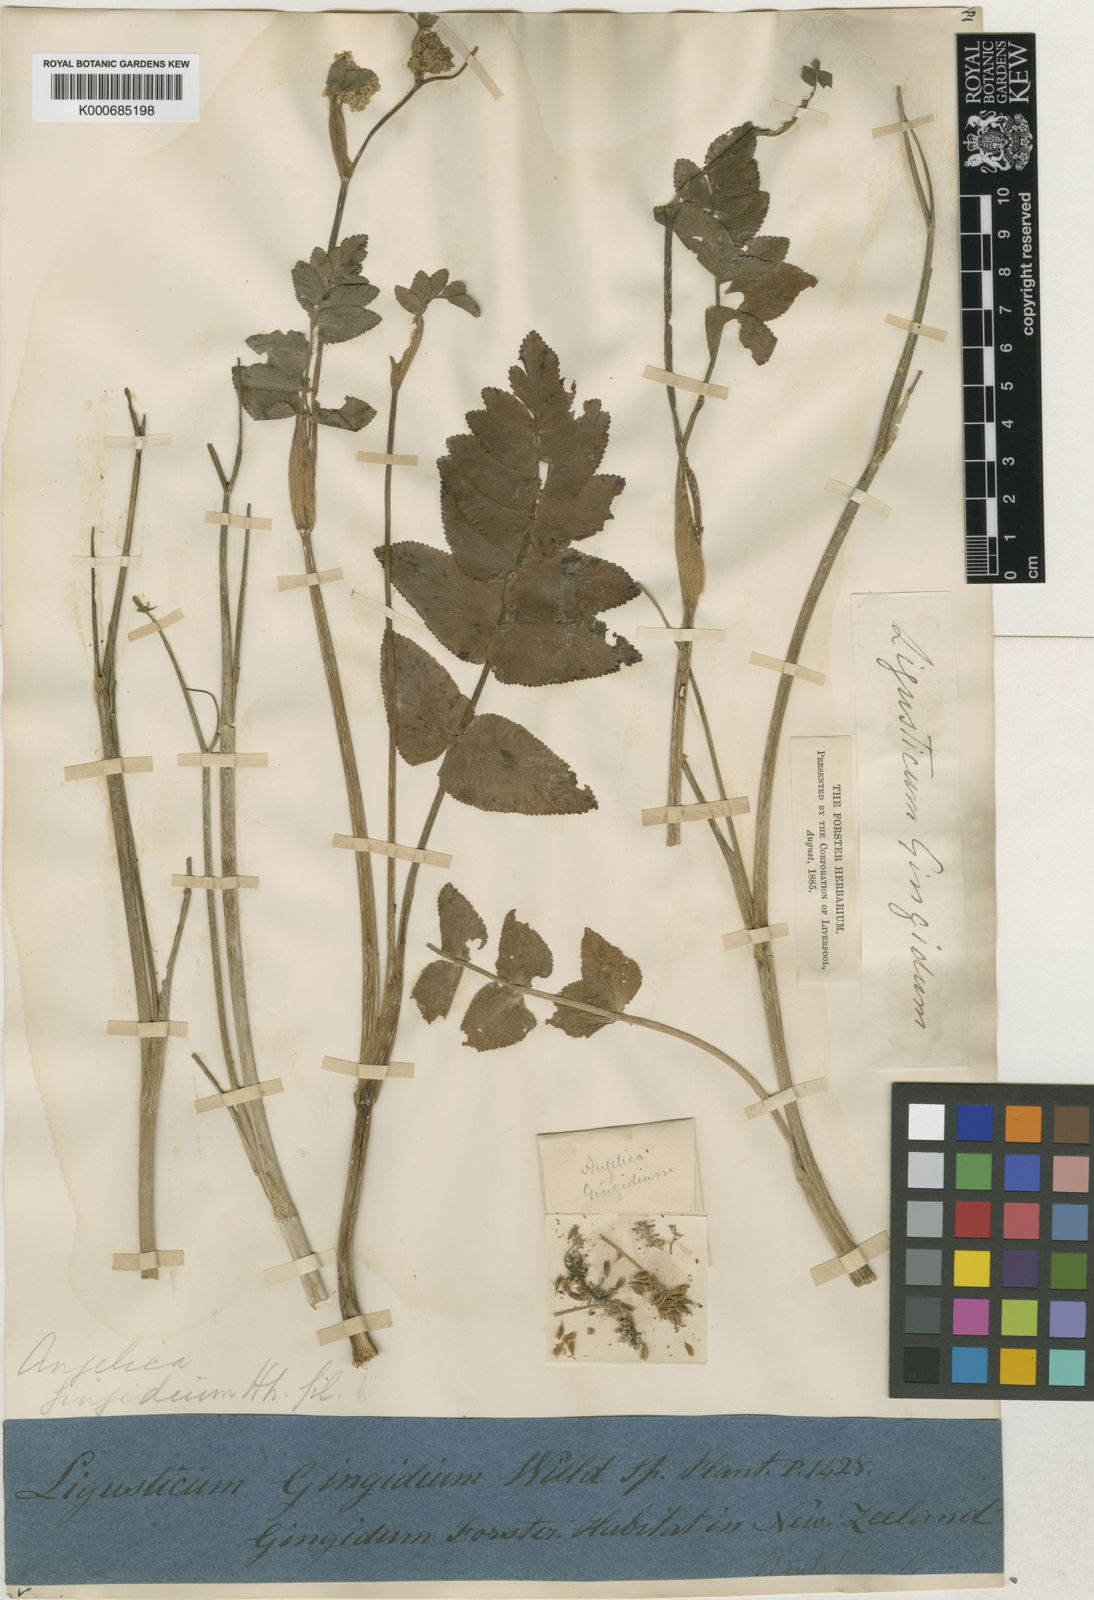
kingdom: Plantae
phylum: Tracheophyta
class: Magnoliopsida
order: Apiales
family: Apiaceae
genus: Gingidia
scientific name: Gingidia
